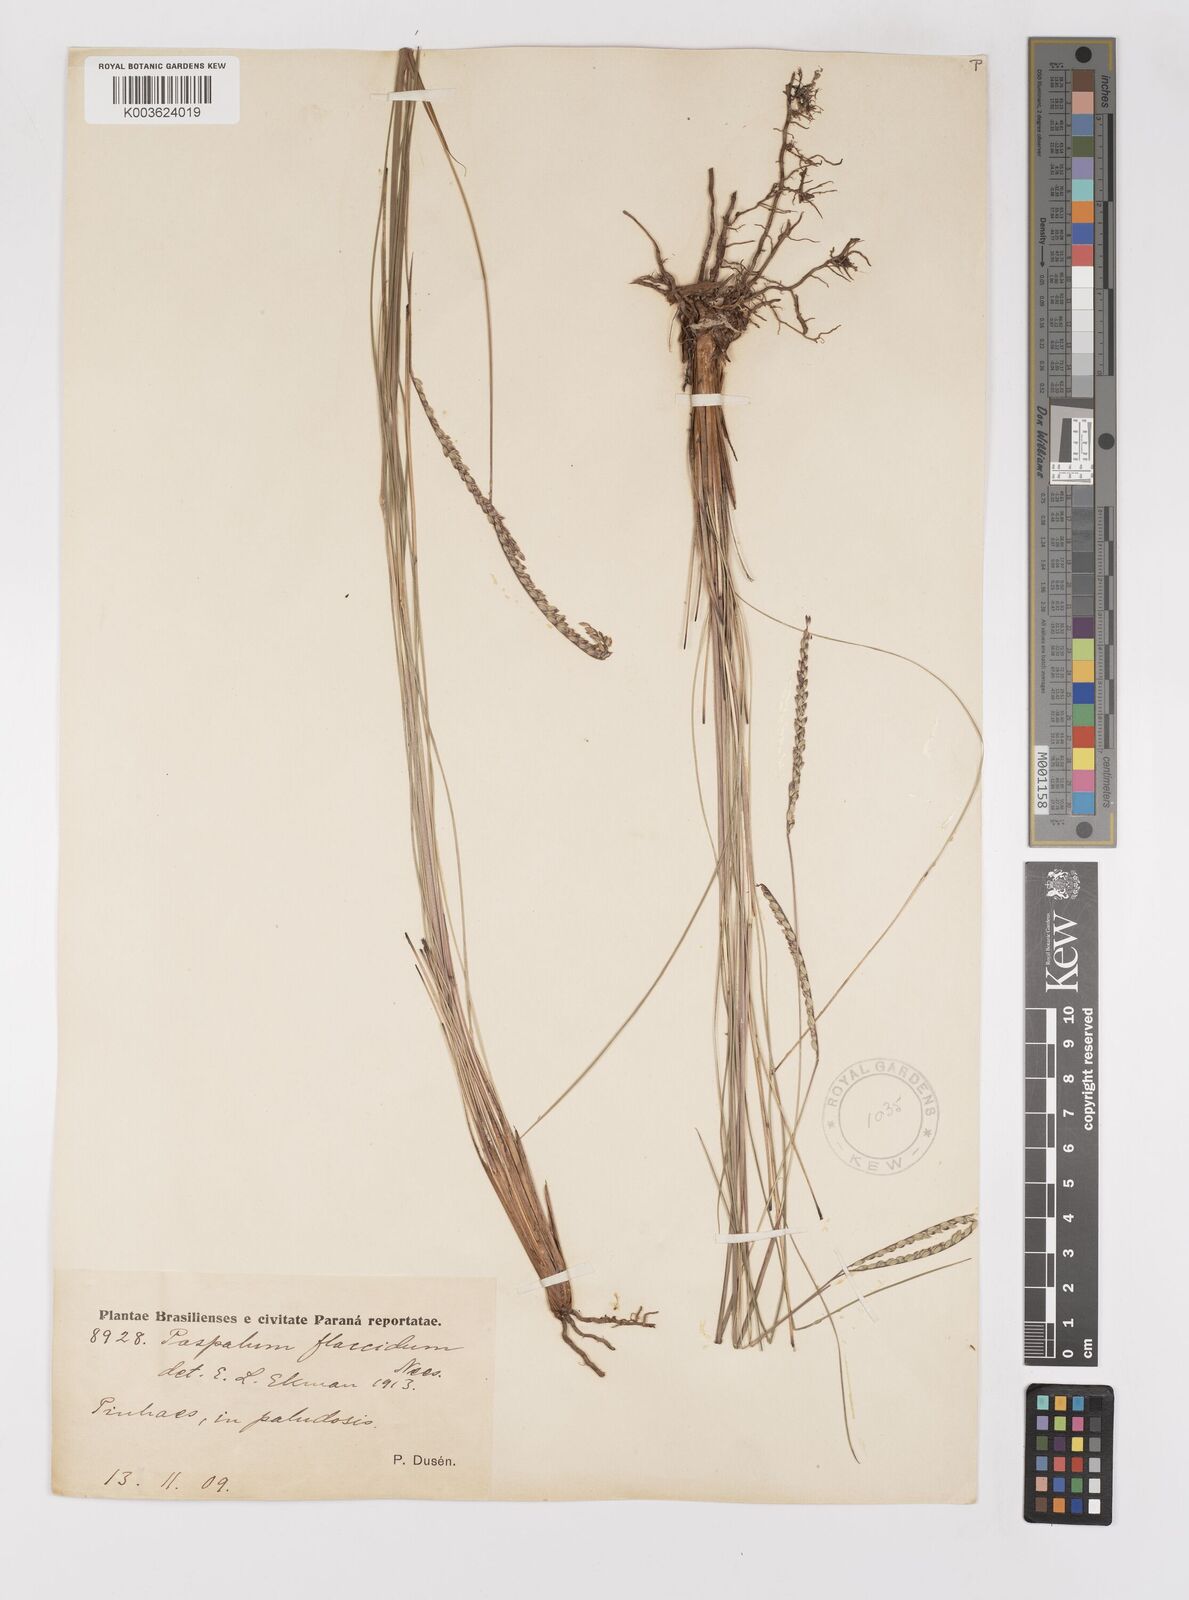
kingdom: Plantae
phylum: Tracheophyta
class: Liliopsida
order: Poales
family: Poaceae
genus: Paspalum
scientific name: Paspalum flaccidum
